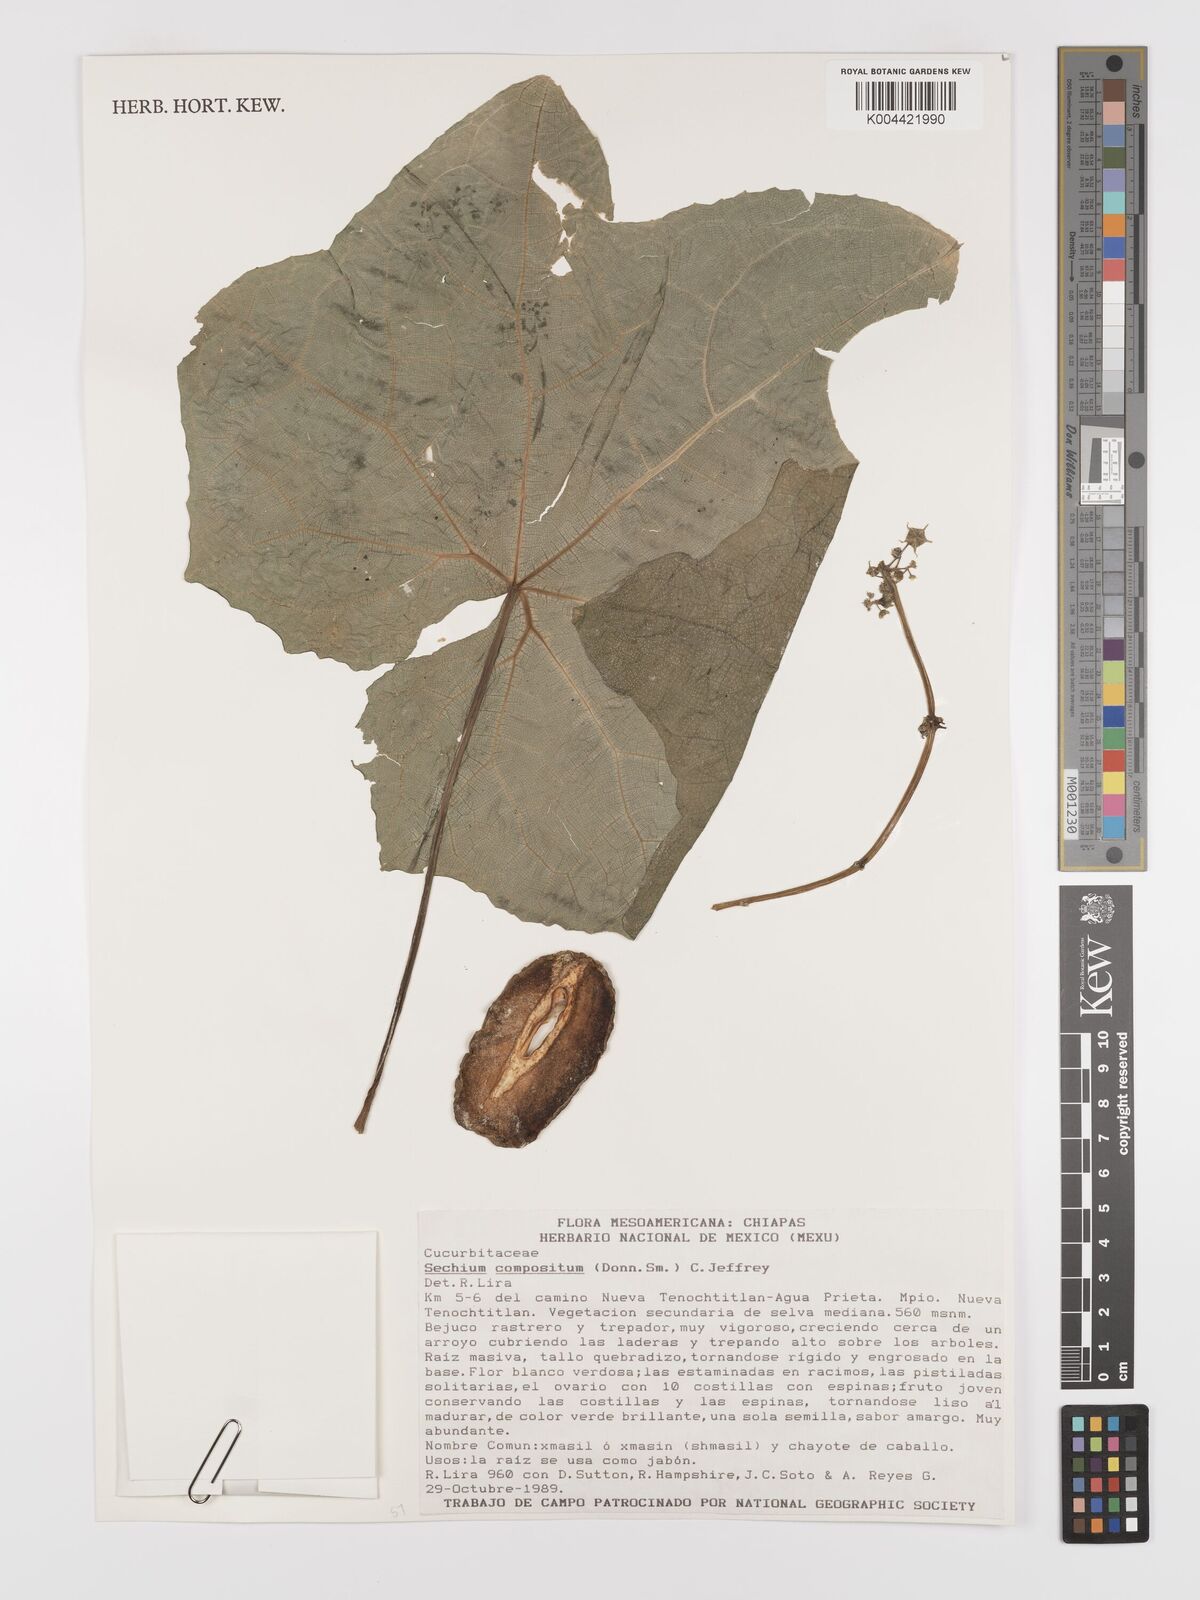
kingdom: Plantae
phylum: Tracheophyta
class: Magnoliopsida
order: Cucurbitales
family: Cucurbitaceae
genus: Sechium
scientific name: Sechium compositum
